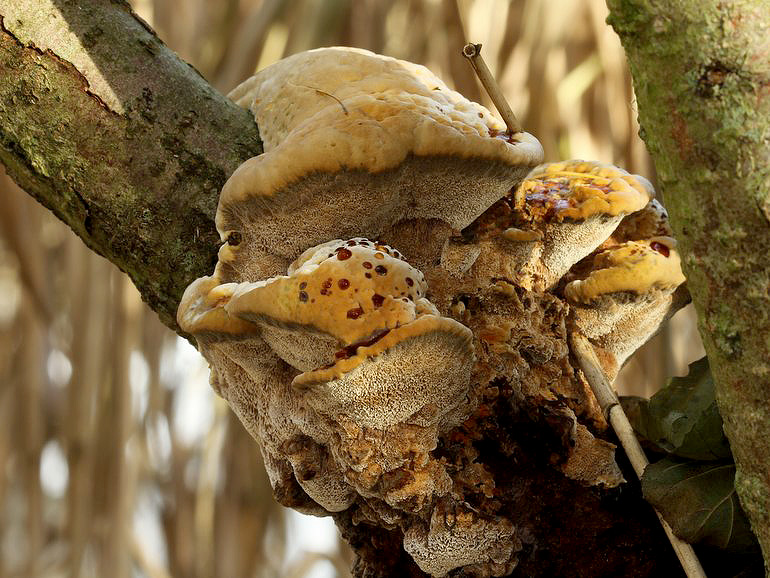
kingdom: Fungi
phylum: Basidiomycota
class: Agaricomycetes
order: Hymenochaetales
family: Hymenochaetaceae
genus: Xanthoporia
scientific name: Xanthoporia radiata
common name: elle-spejlporesvamp
